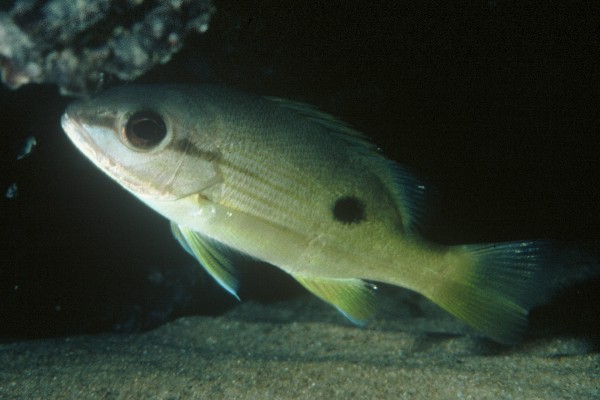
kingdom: Animalia
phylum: Chordata
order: Perciformes
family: Lutjanidae
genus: Lutjanus
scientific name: Lutjanus ehrenbergii
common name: Blackspot snapper
